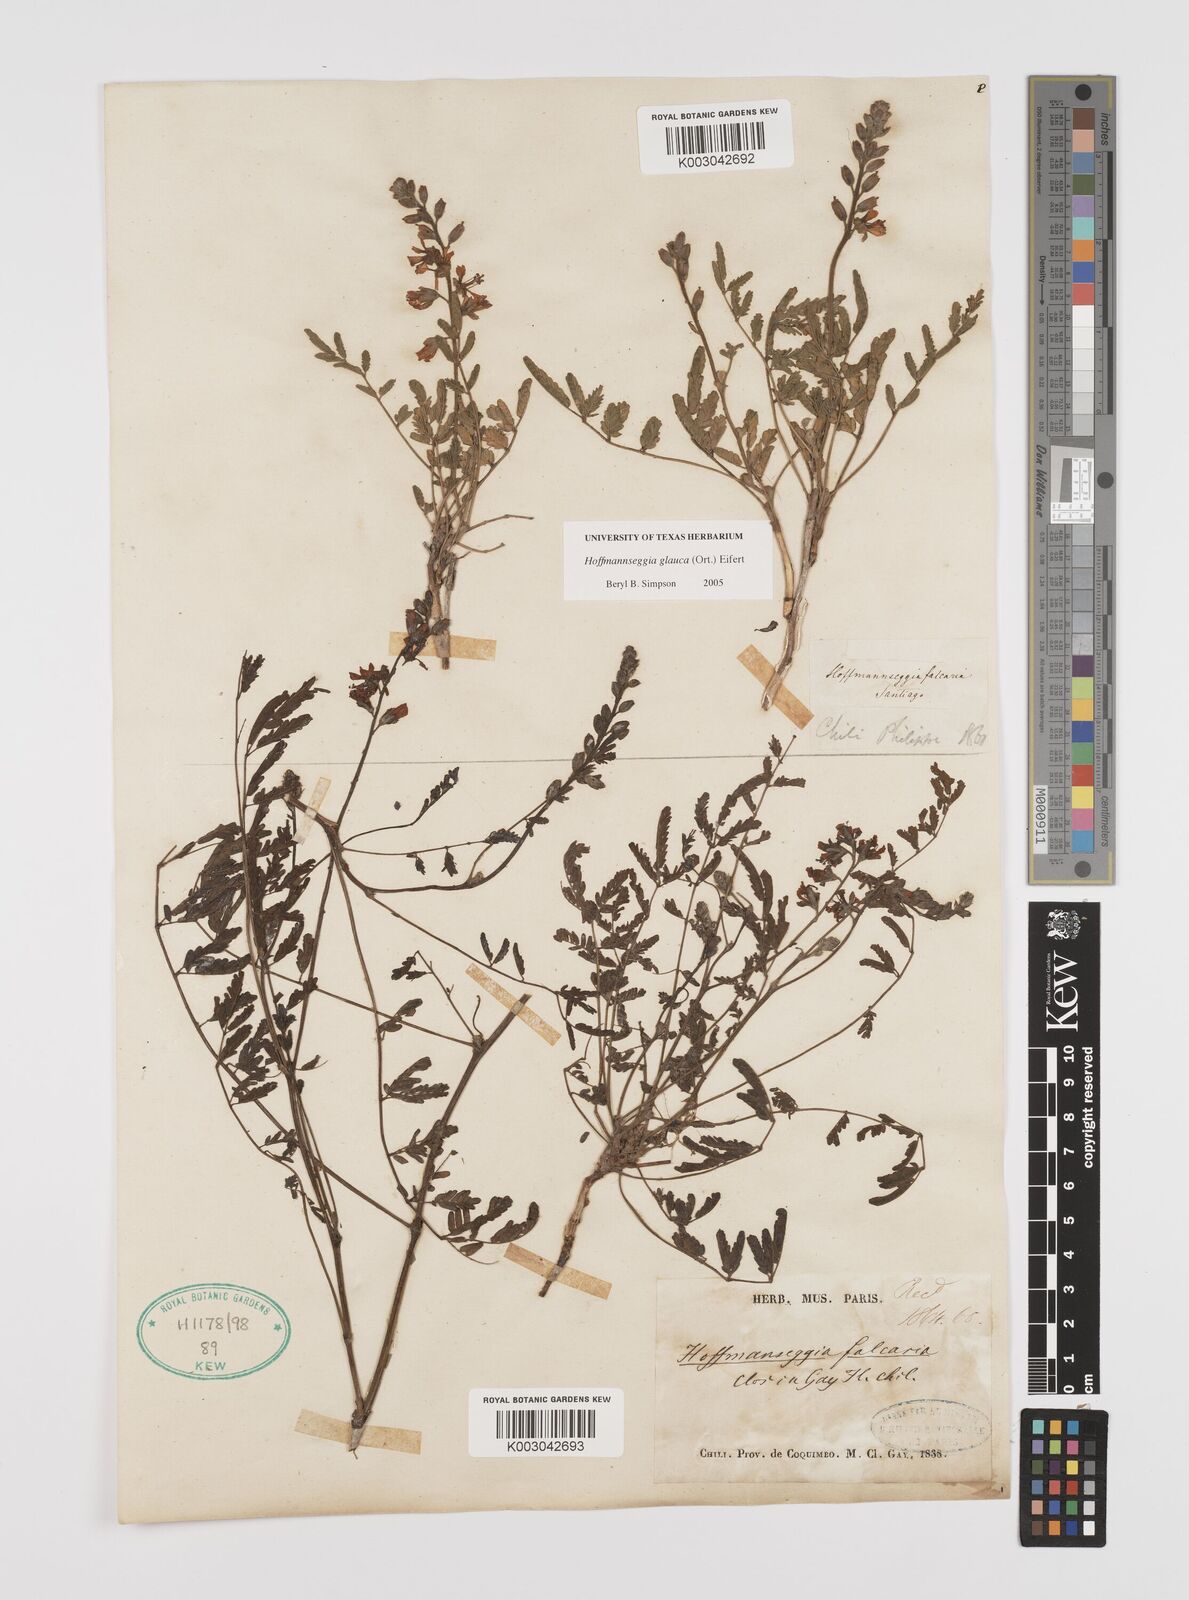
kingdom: Plantae
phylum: Tracheophyta
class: Magnoliopsida
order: Fabales
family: Fabaceae
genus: Hoffmannseggia
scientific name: Hoffmannseggia glauca
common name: Pignut
